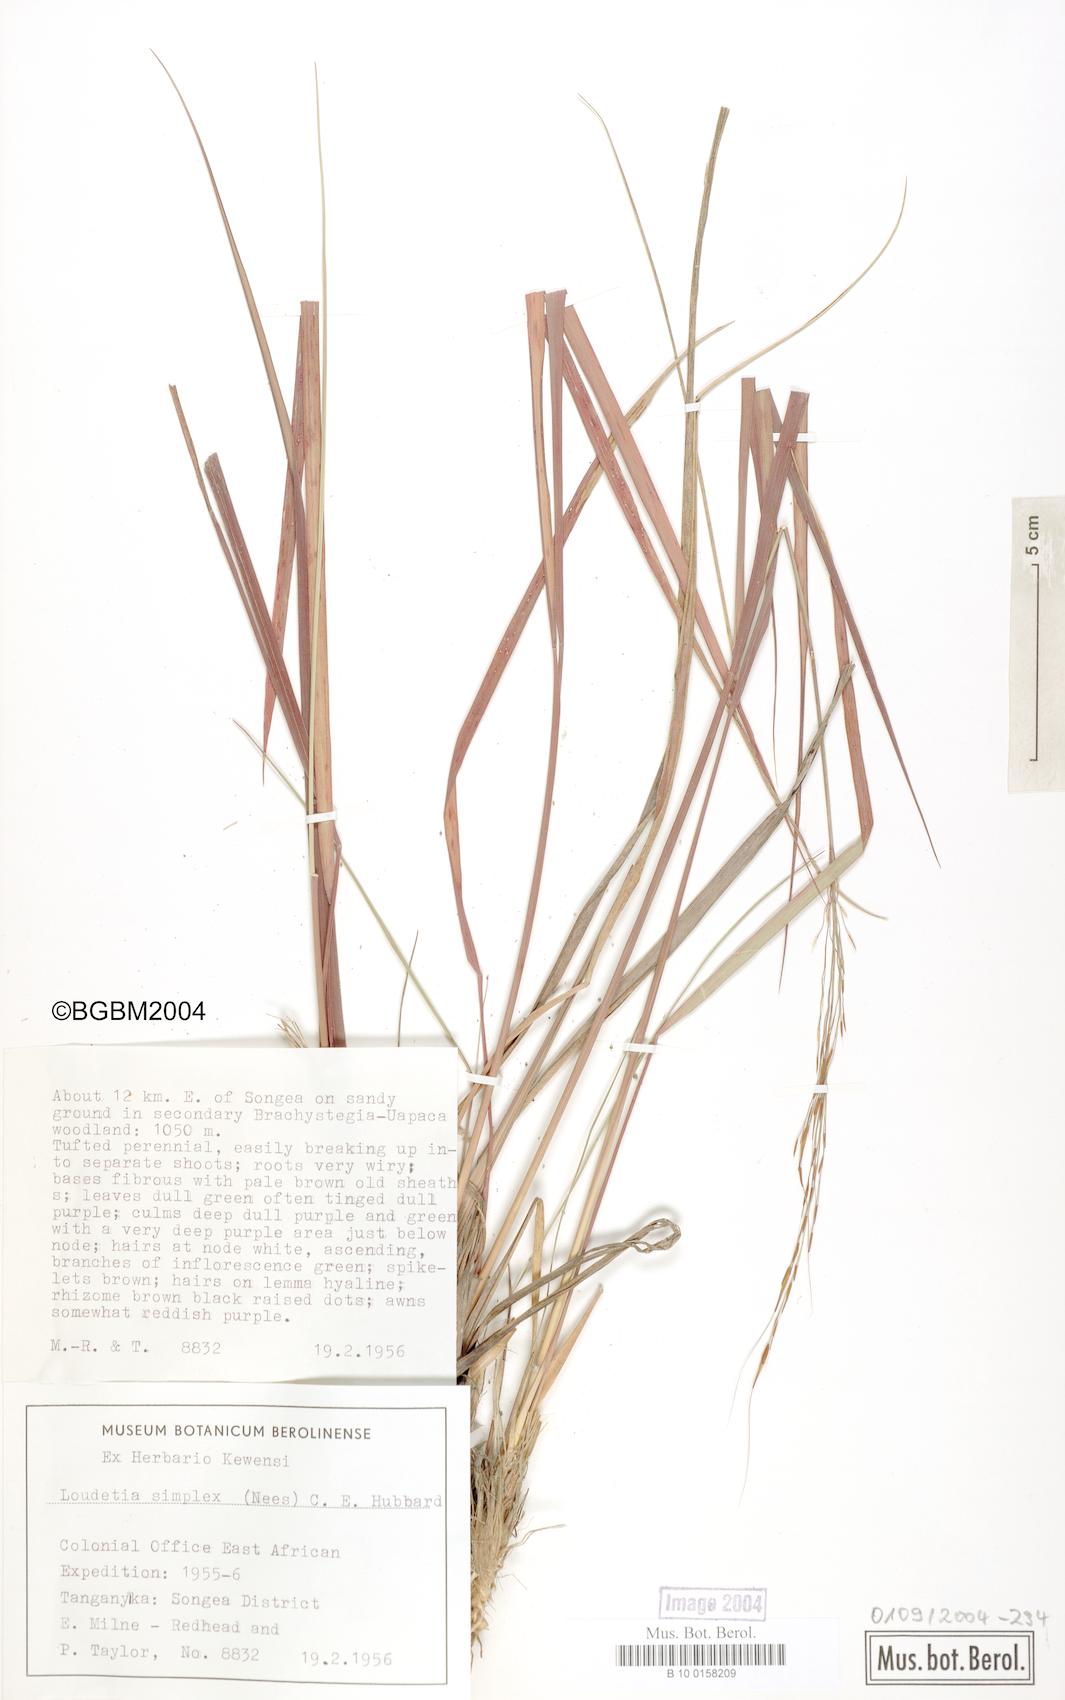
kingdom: Plantae
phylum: Tracheophyta
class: Liliopsida
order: Poales
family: Poaceae
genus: Loudetia
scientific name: Loudetia simplex
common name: Common russet grass
